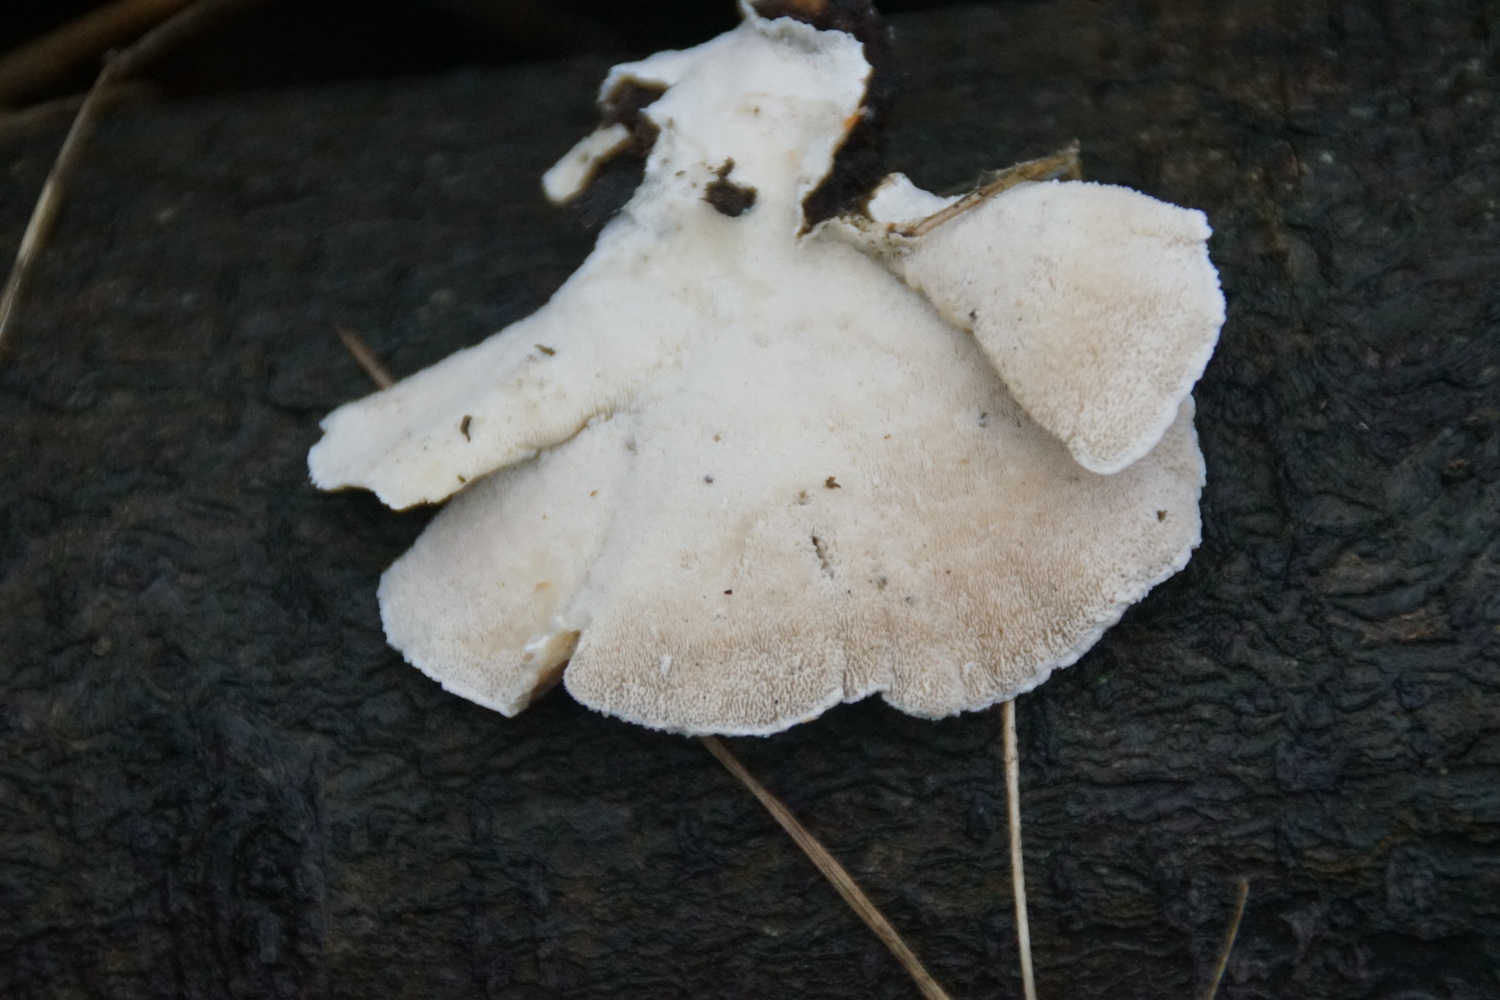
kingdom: Fungi
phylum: Basidiomycota
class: Agaricomycetes
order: Polyporales
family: Polyporaceae
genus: Trametes
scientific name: Trametes versicolor
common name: broget læderporesvamp
